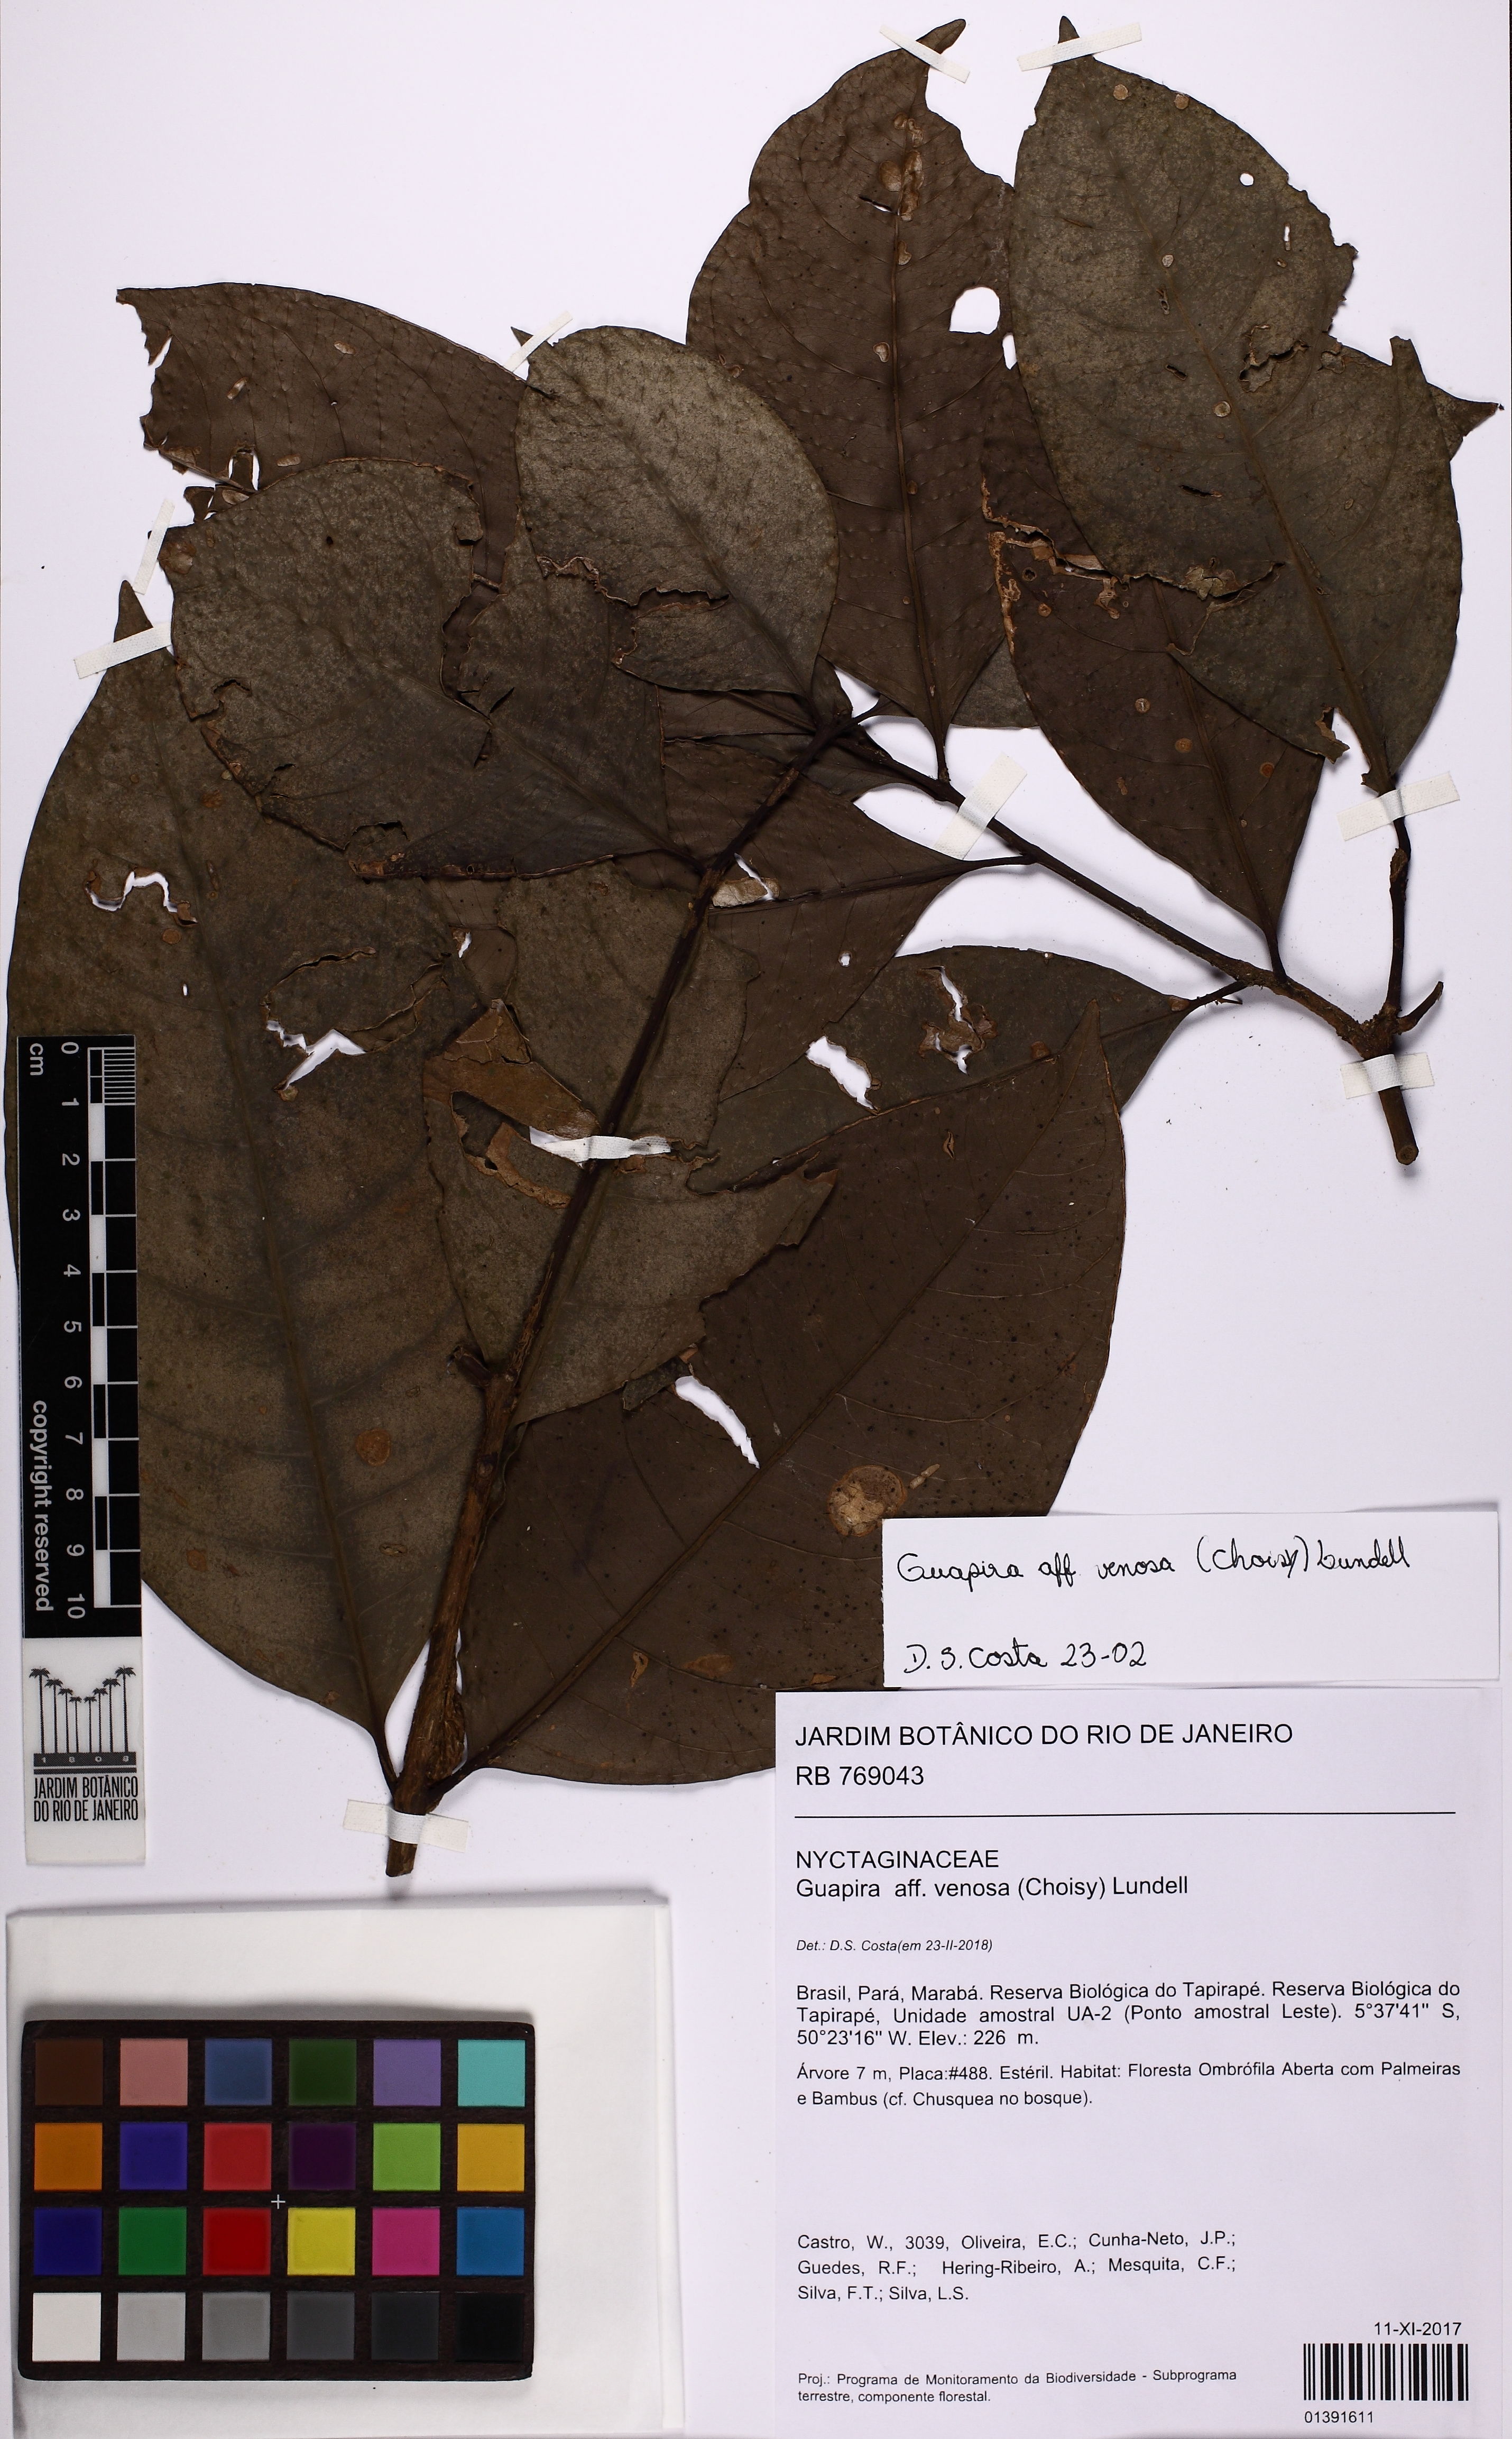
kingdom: Plantae
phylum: Tracheophyta
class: Magnoliopsida
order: Caryophyllales
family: Nyctaginaceae
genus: Guapira
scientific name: Guapira venosa
